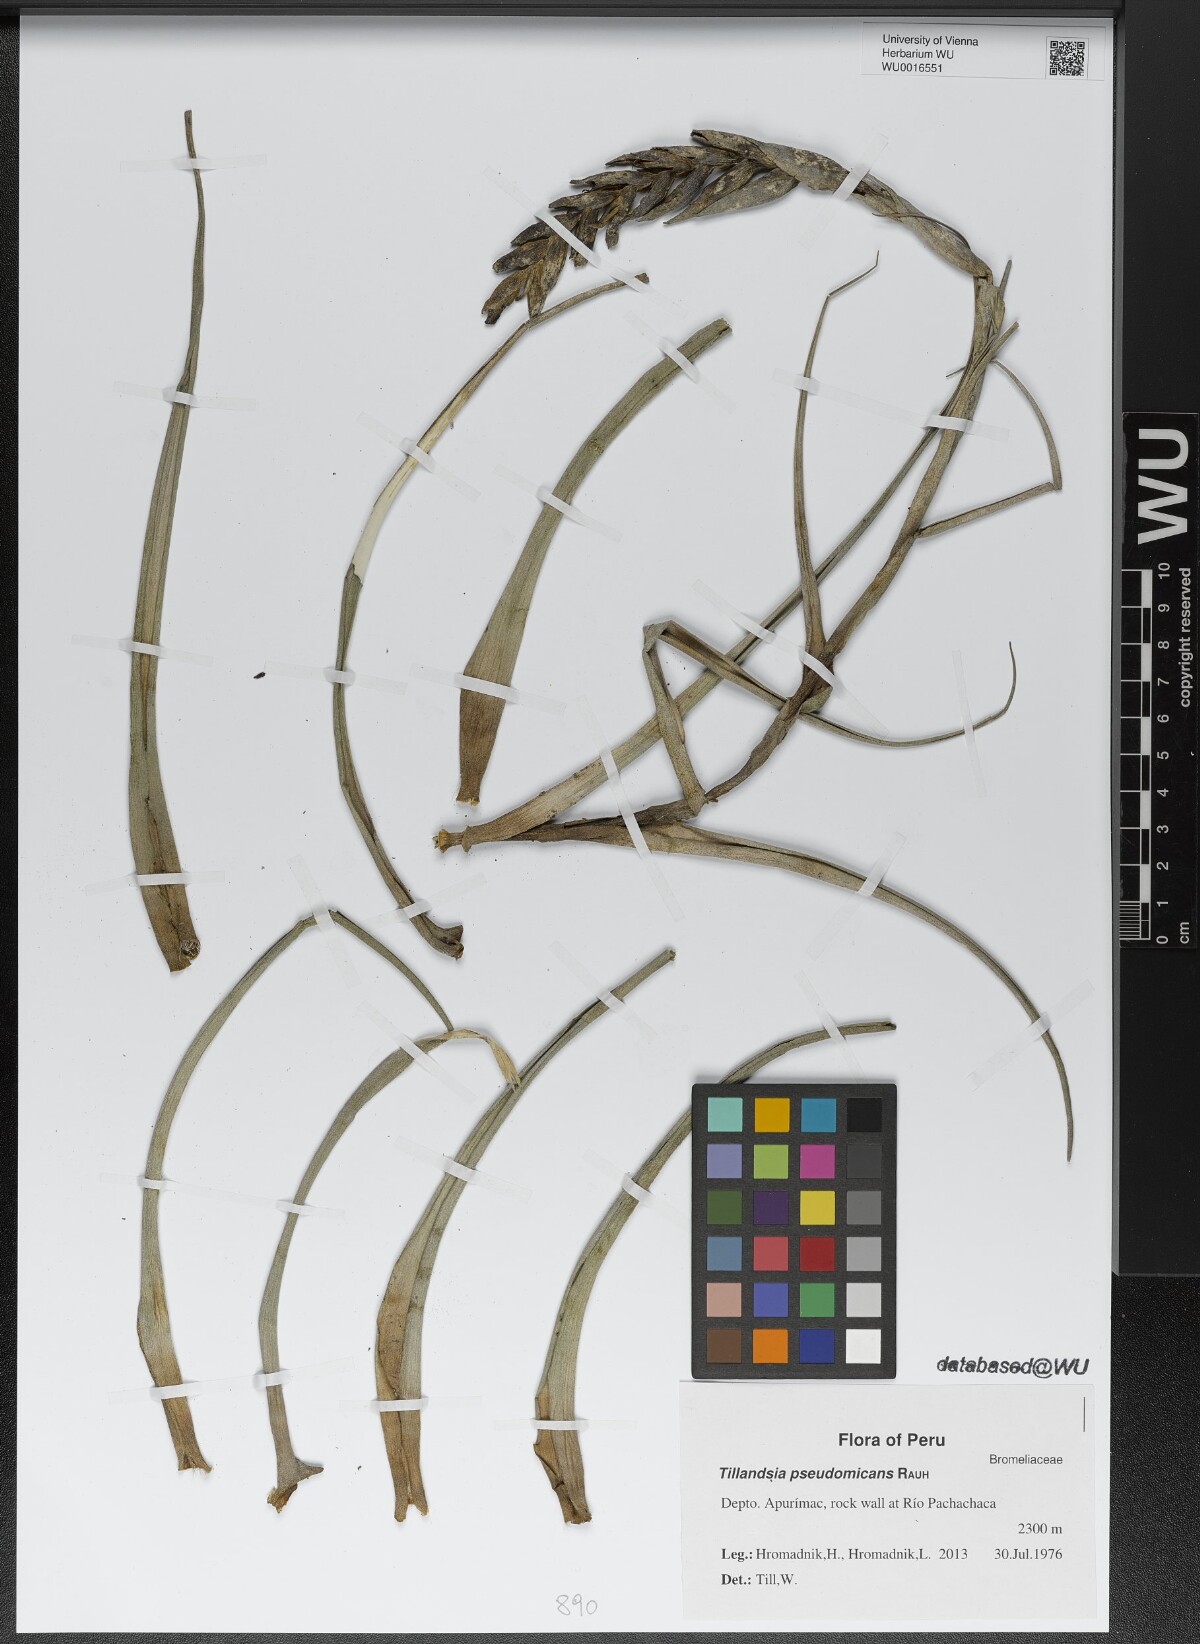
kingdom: Plantae
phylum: Tracheophyta
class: Liliopsida
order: Poales
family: Bromeliaceae
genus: Tillandsia
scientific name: Tillandsia pseudomicans
